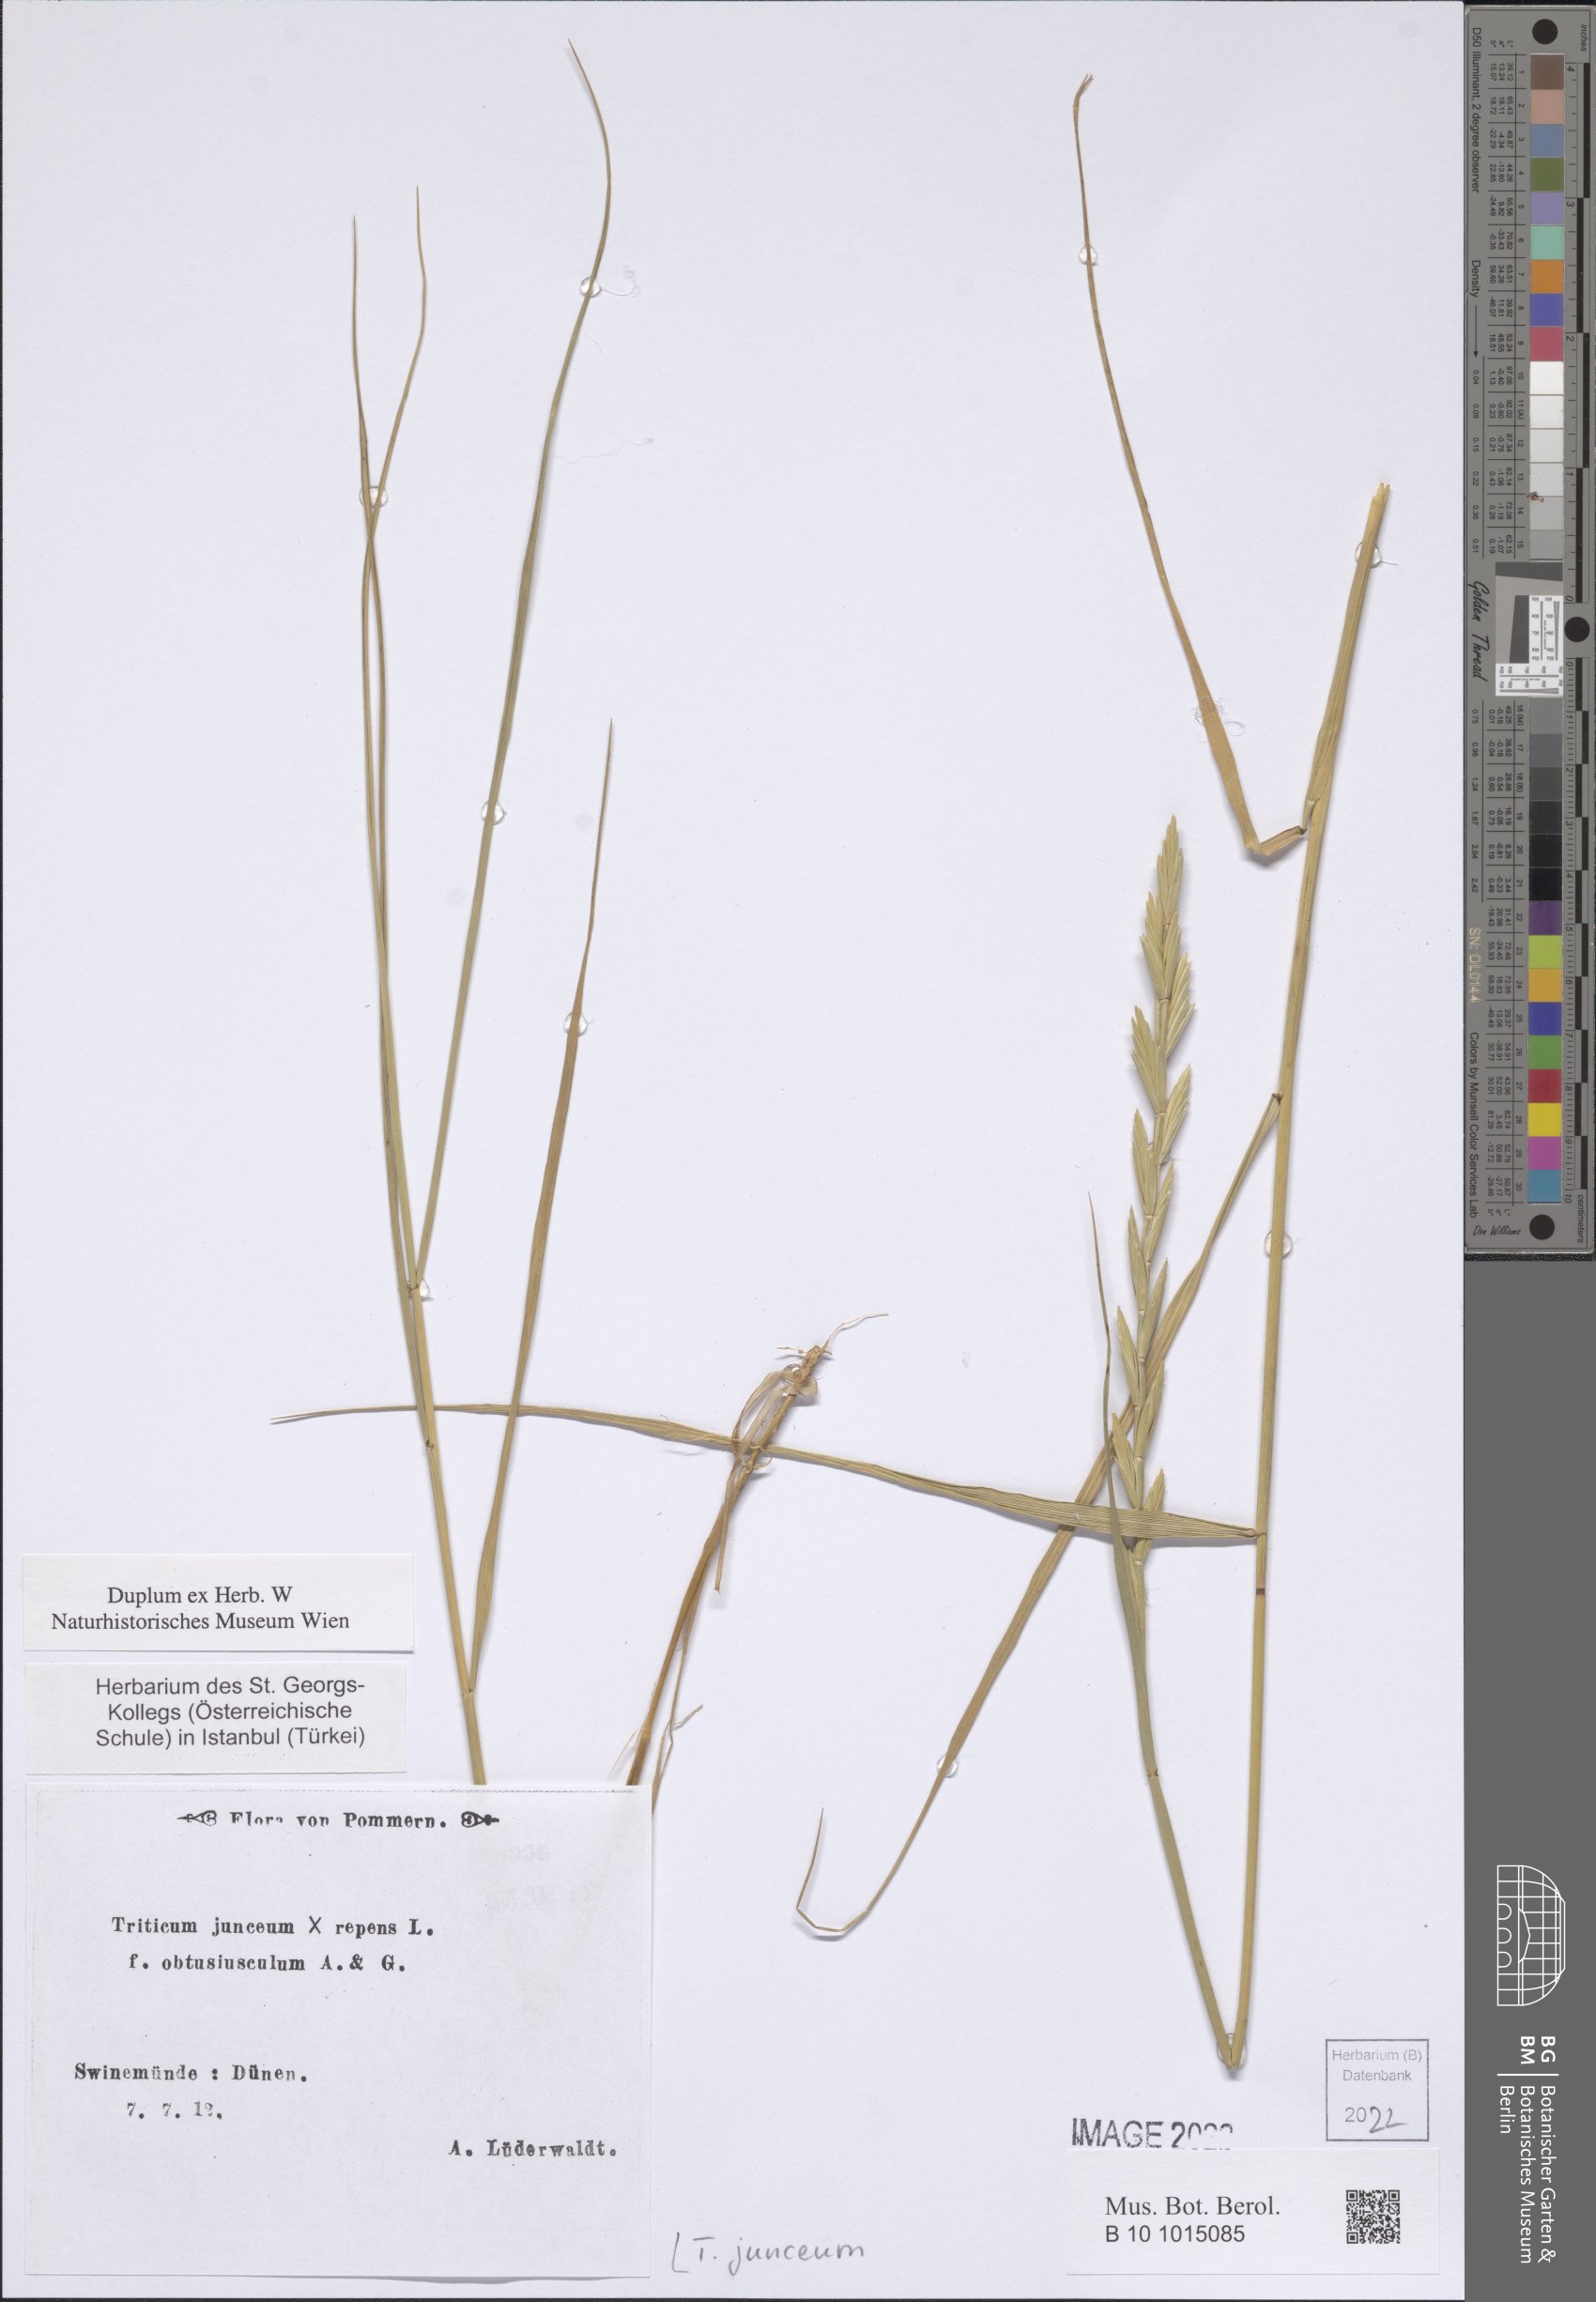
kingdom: Plantae
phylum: Tracheophyta
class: Liliopsida
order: Poales
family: Poaceae
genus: Thinopyrum
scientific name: Thinopyrum junceum
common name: Russian wheatgrass
